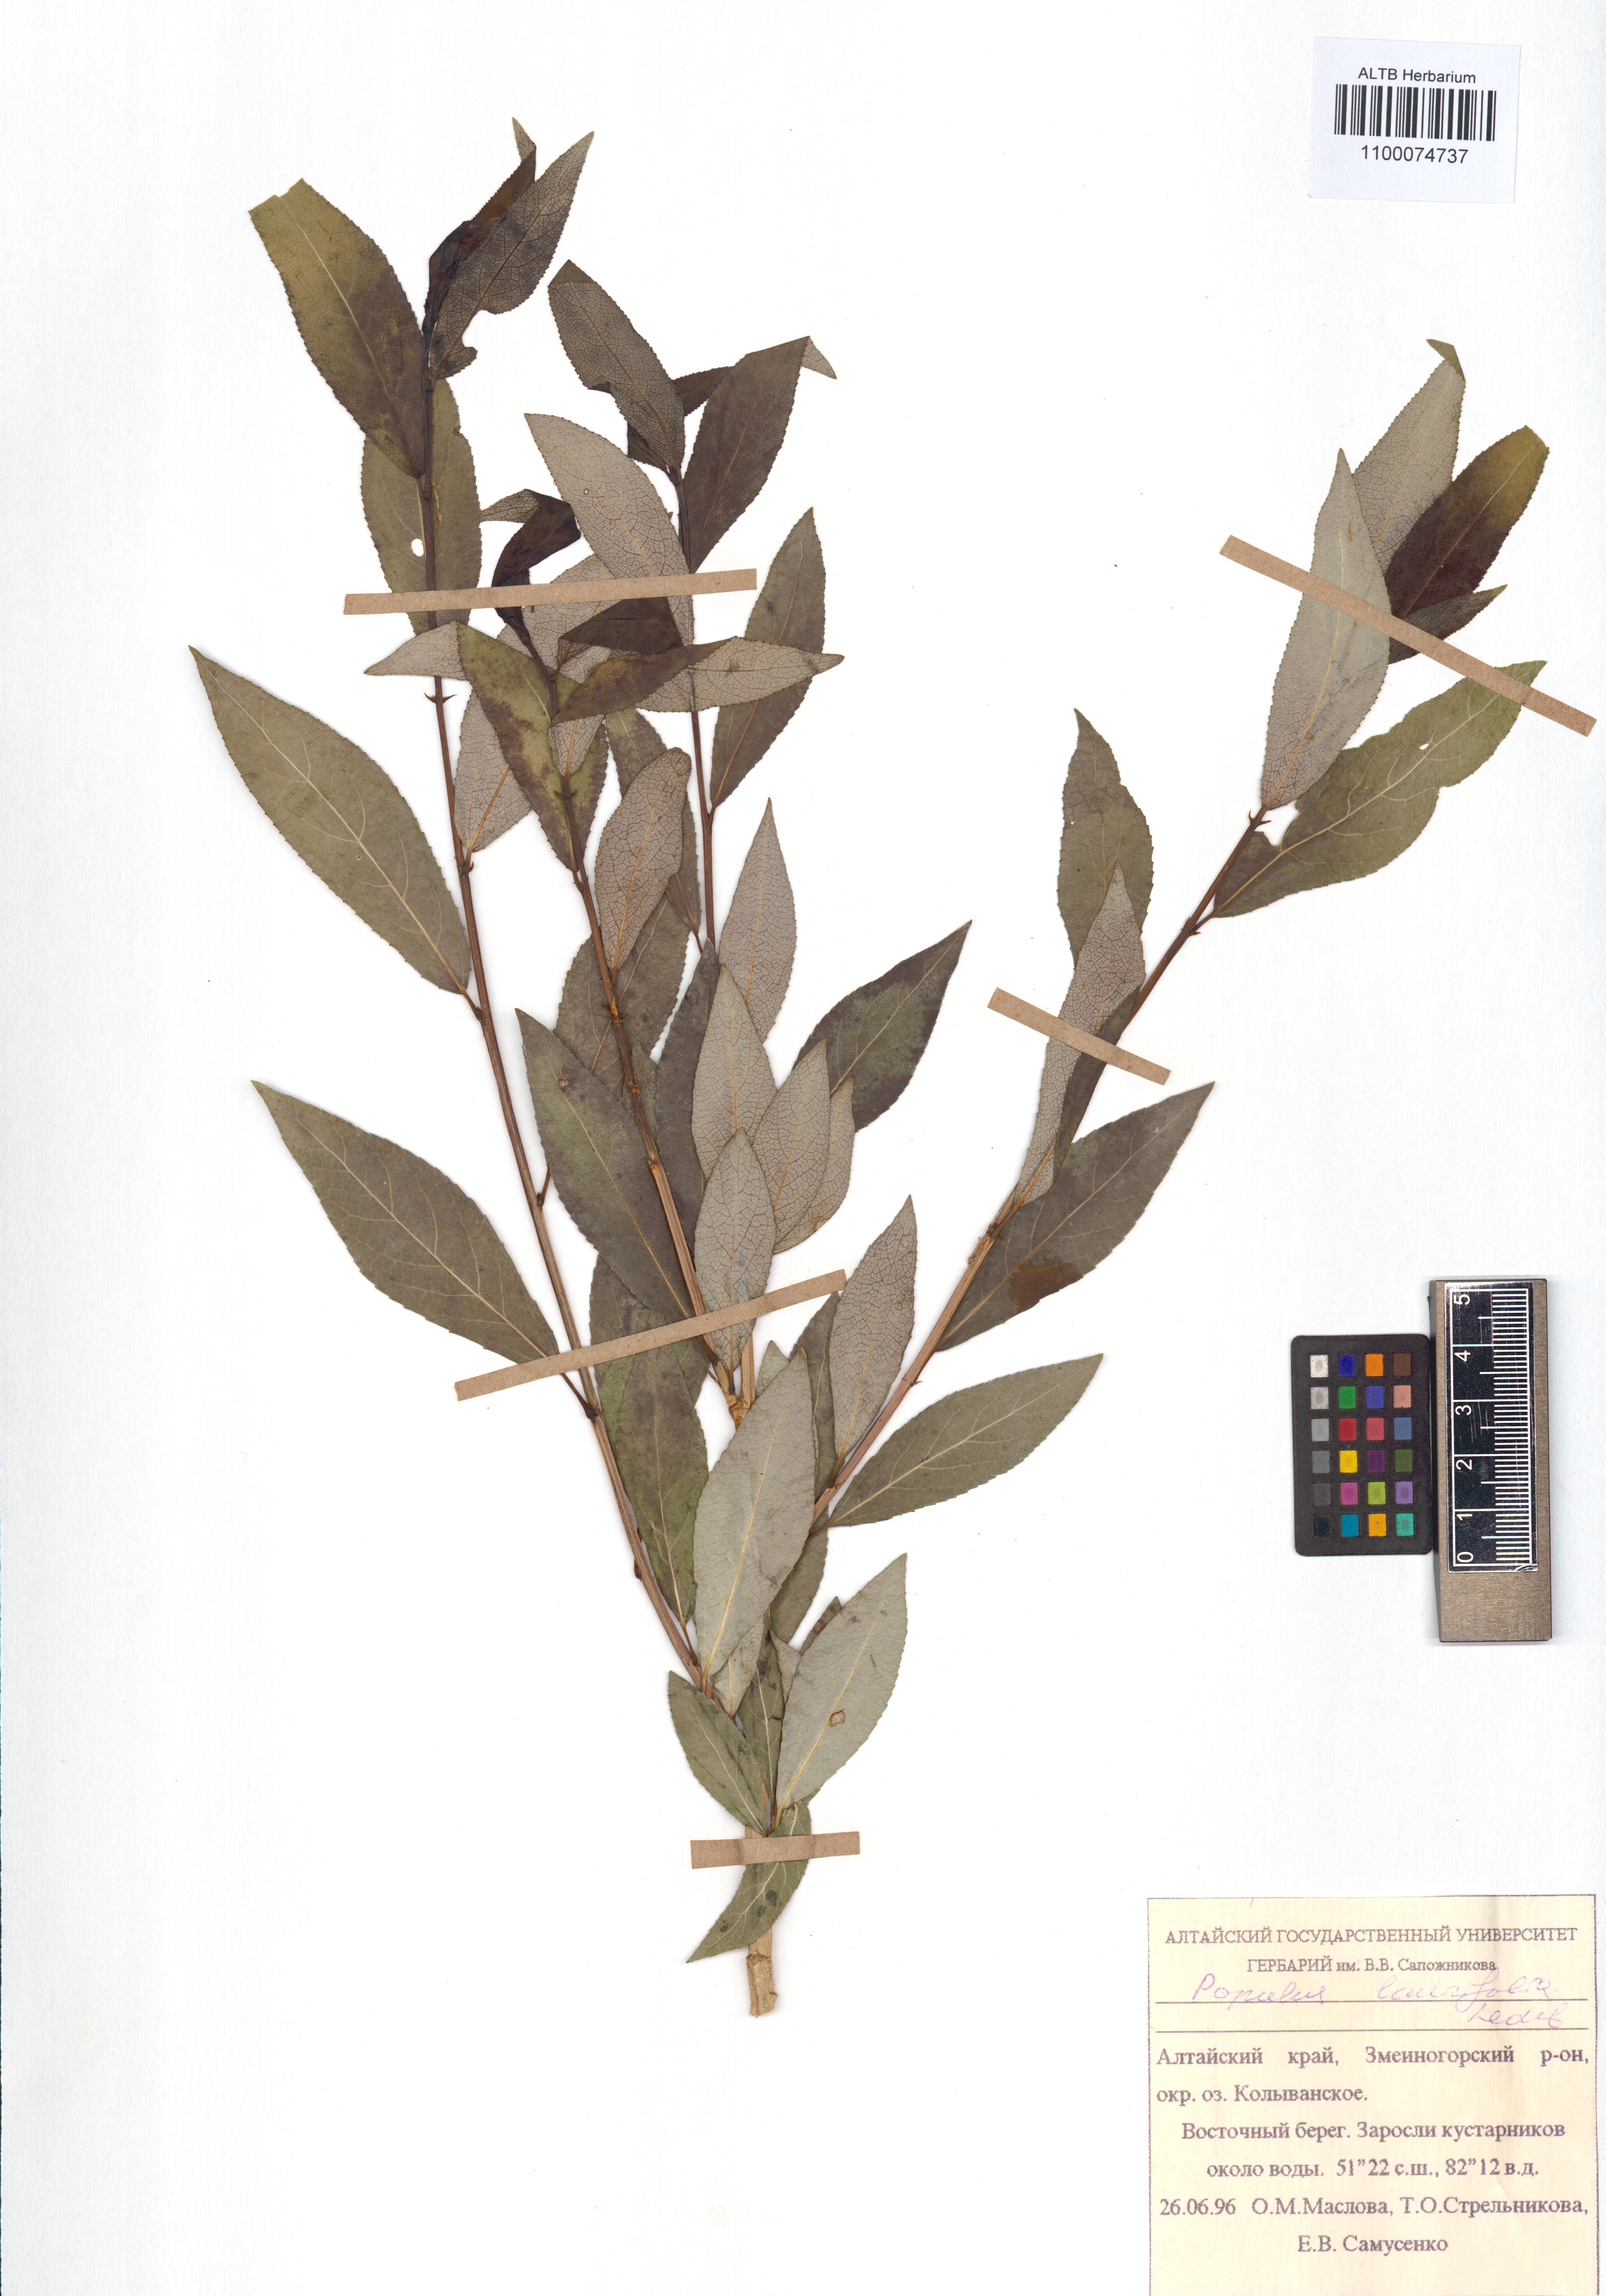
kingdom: Plantae
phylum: Tracheophyta
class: Magnoliopsida
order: Malpighiales
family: Salicaceae
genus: Populus
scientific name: Populus laurifolia
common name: Laurel-leaf poplar
